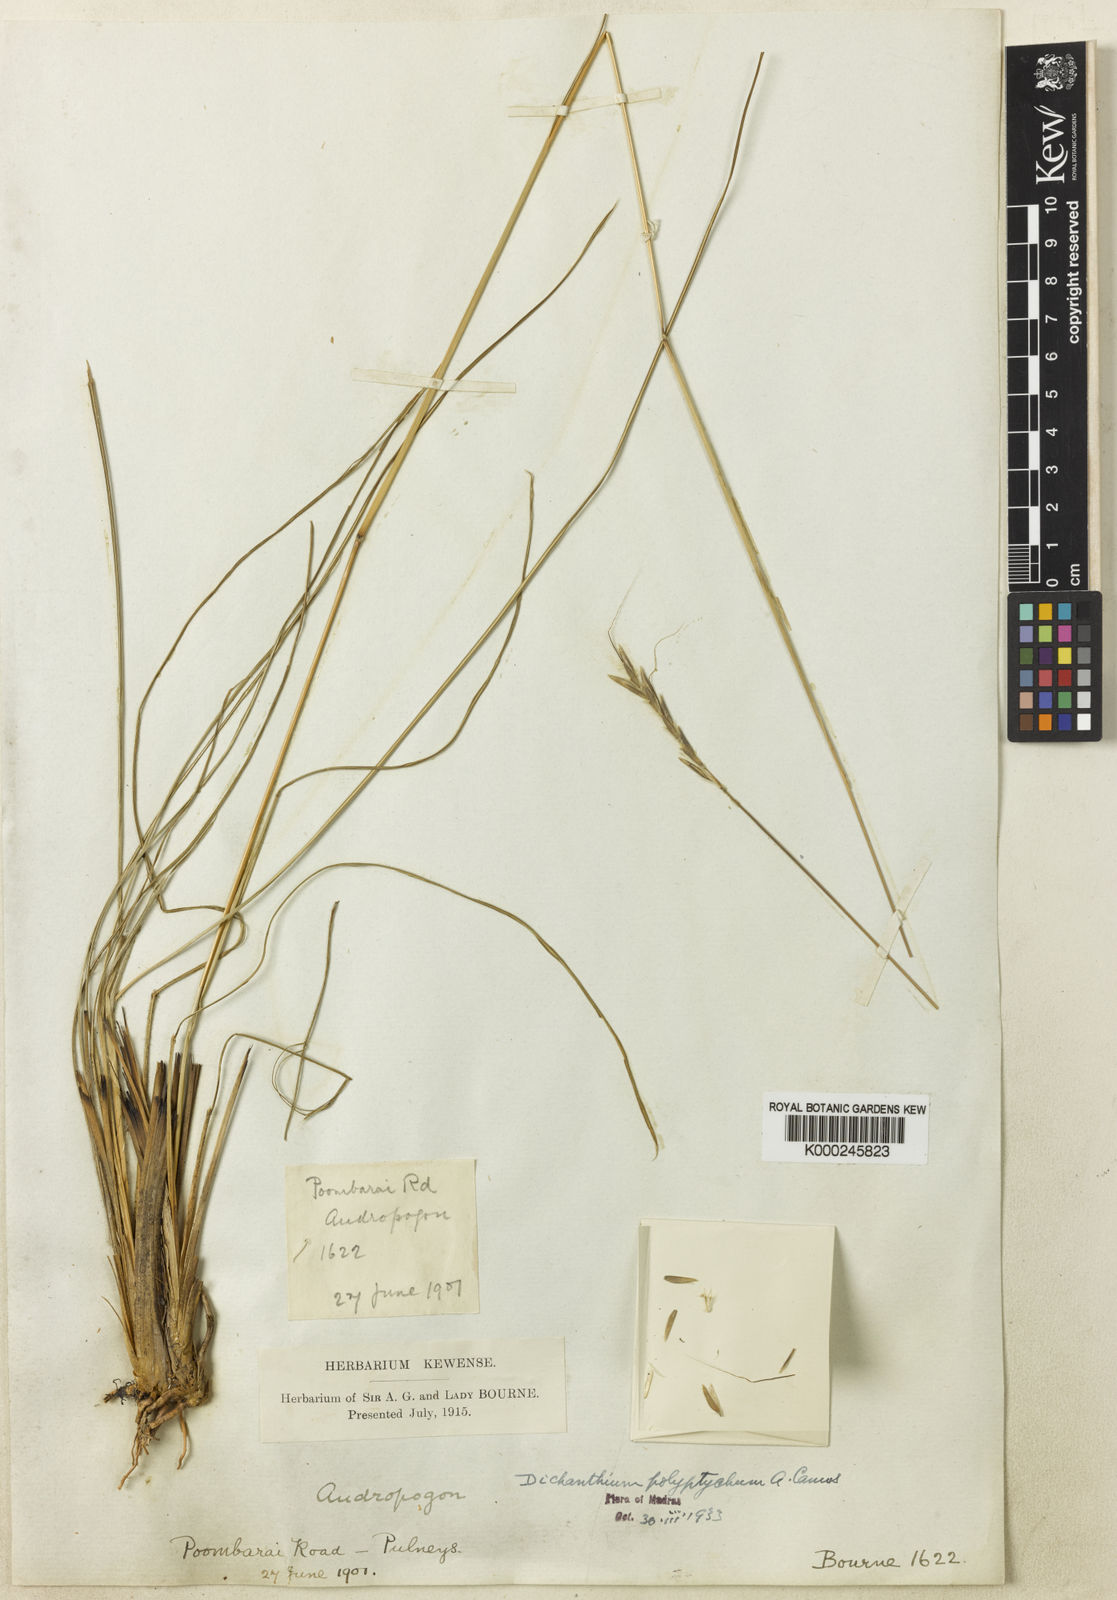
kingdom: Plantae
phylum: Tracheophyta
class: Liliopsida
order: Poales
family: Poaceae
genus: Andropogon
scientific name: Andropogon polyptychos
